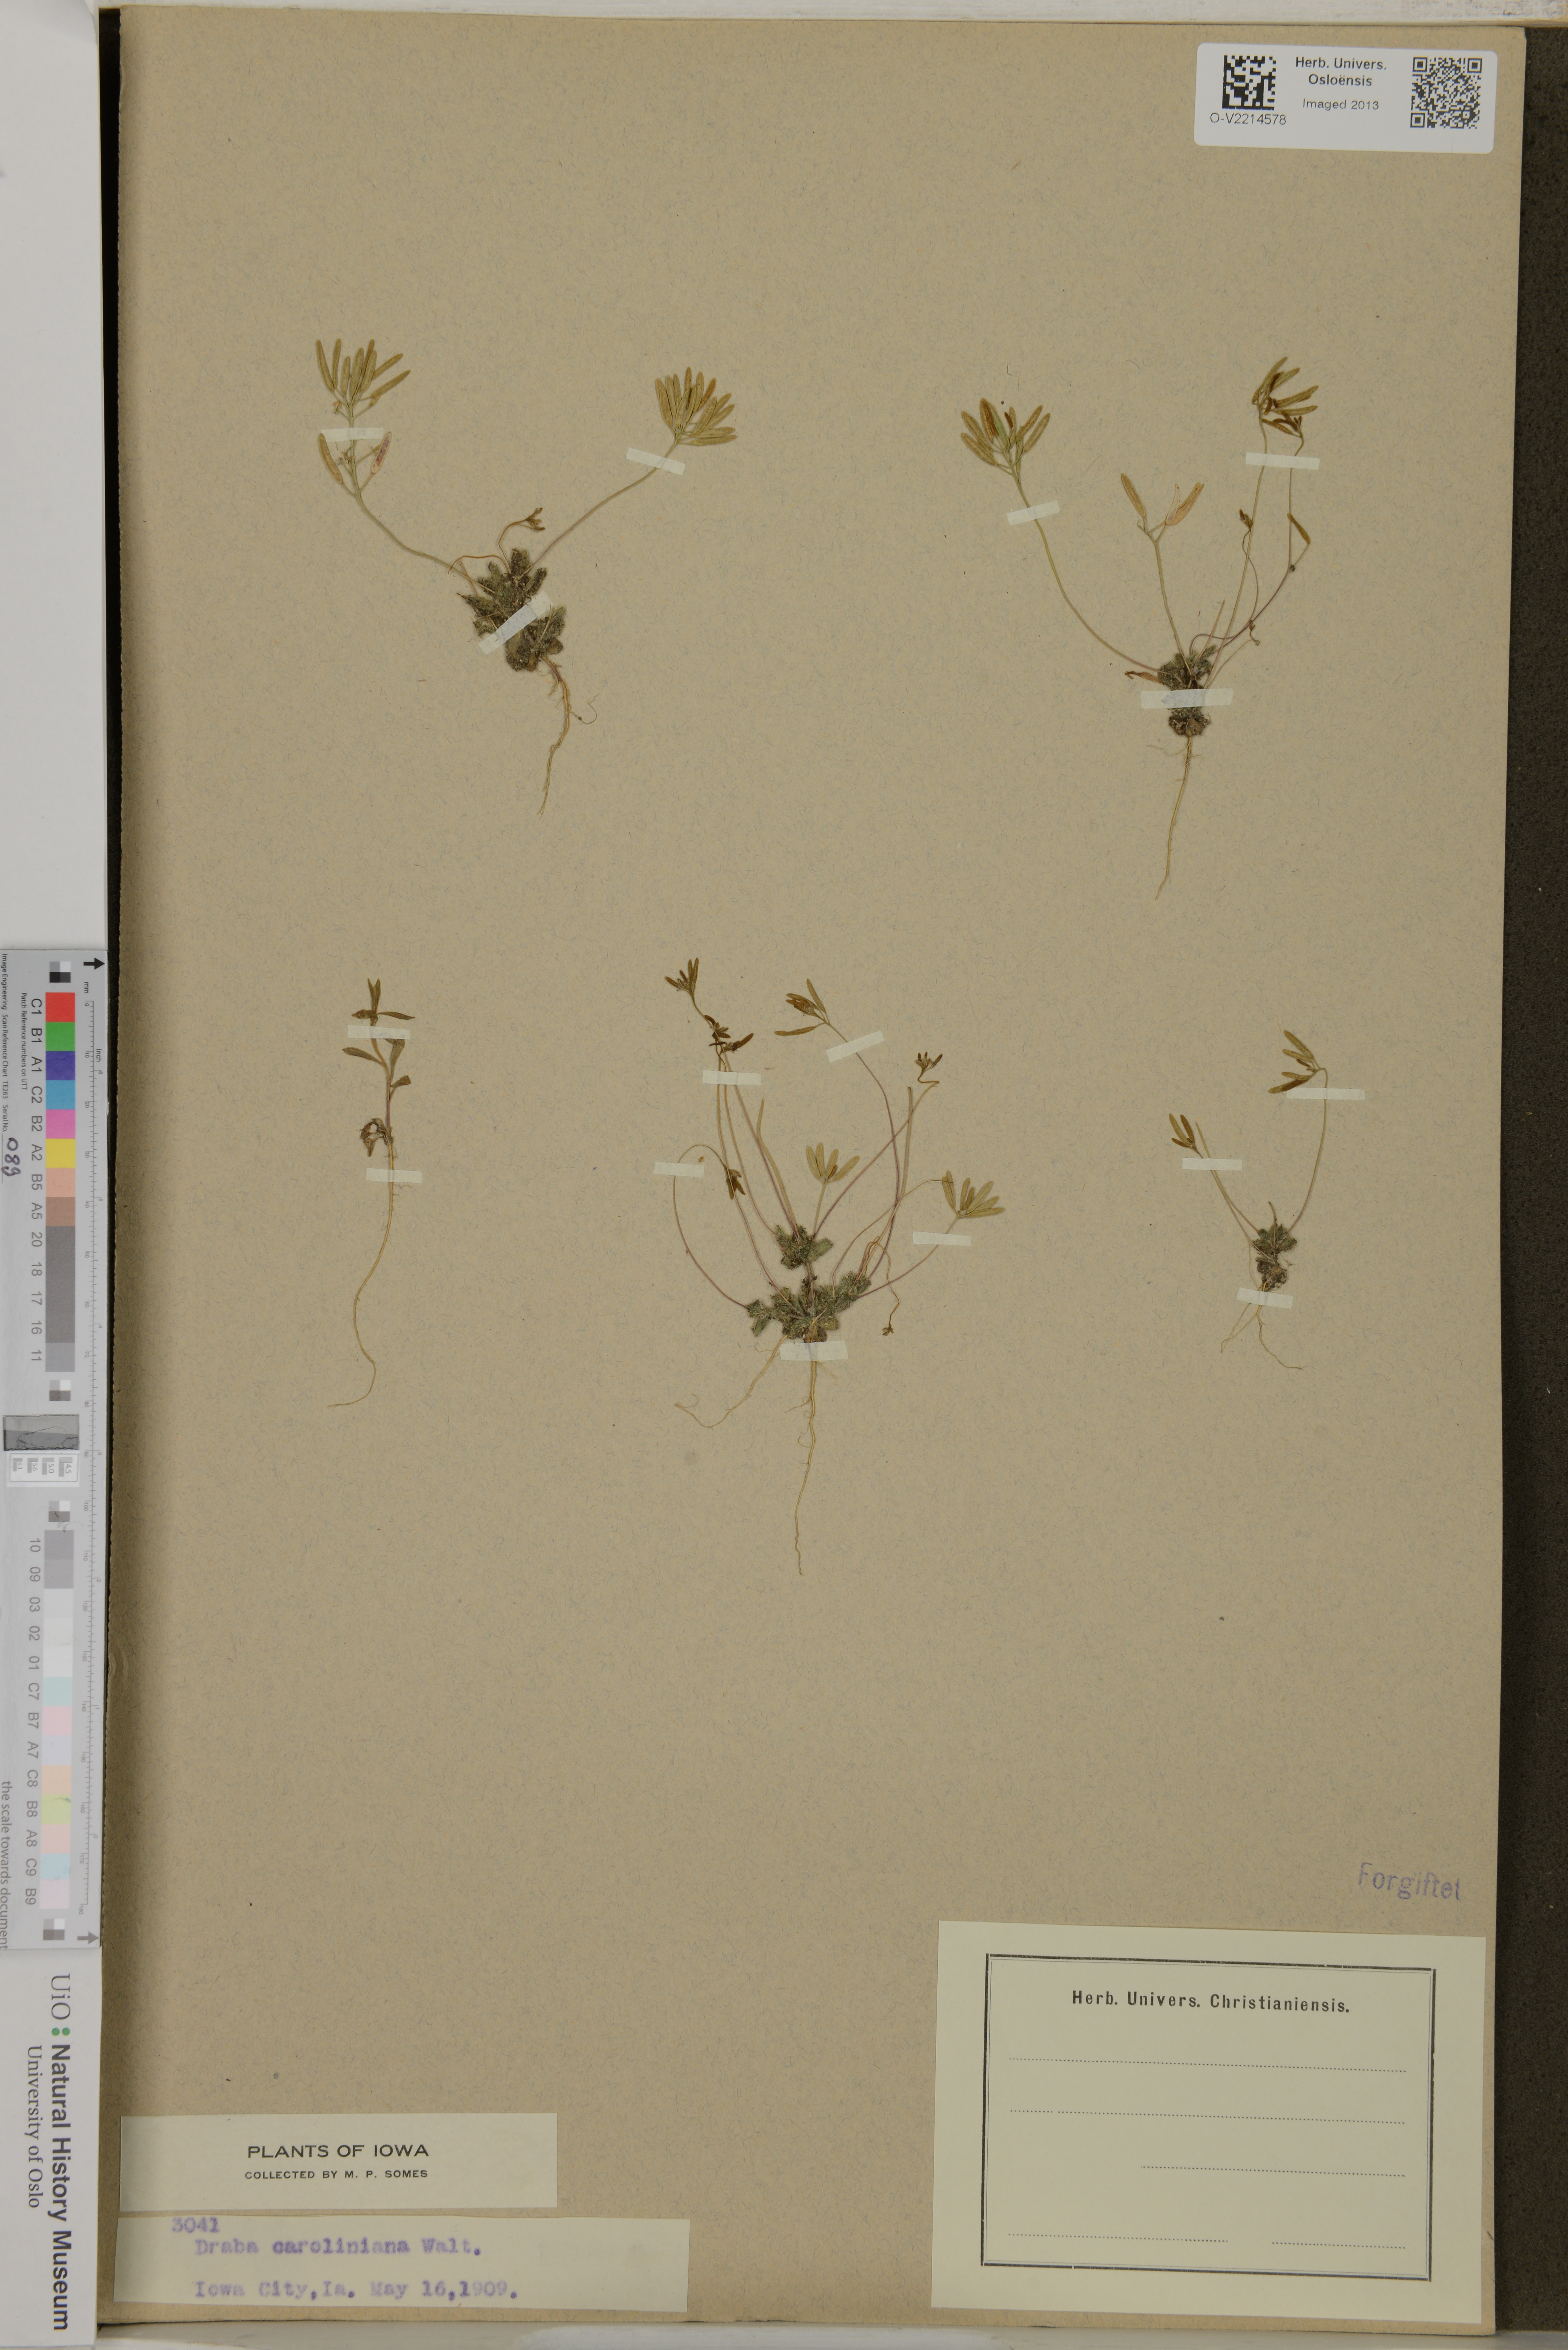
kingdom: Plantae
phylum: Tracheophyta
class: Magnoliopsida
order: Brassicales
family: Brassicaceae
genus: Tomostima
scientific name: Tomostima reptans
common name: Carolina draba
